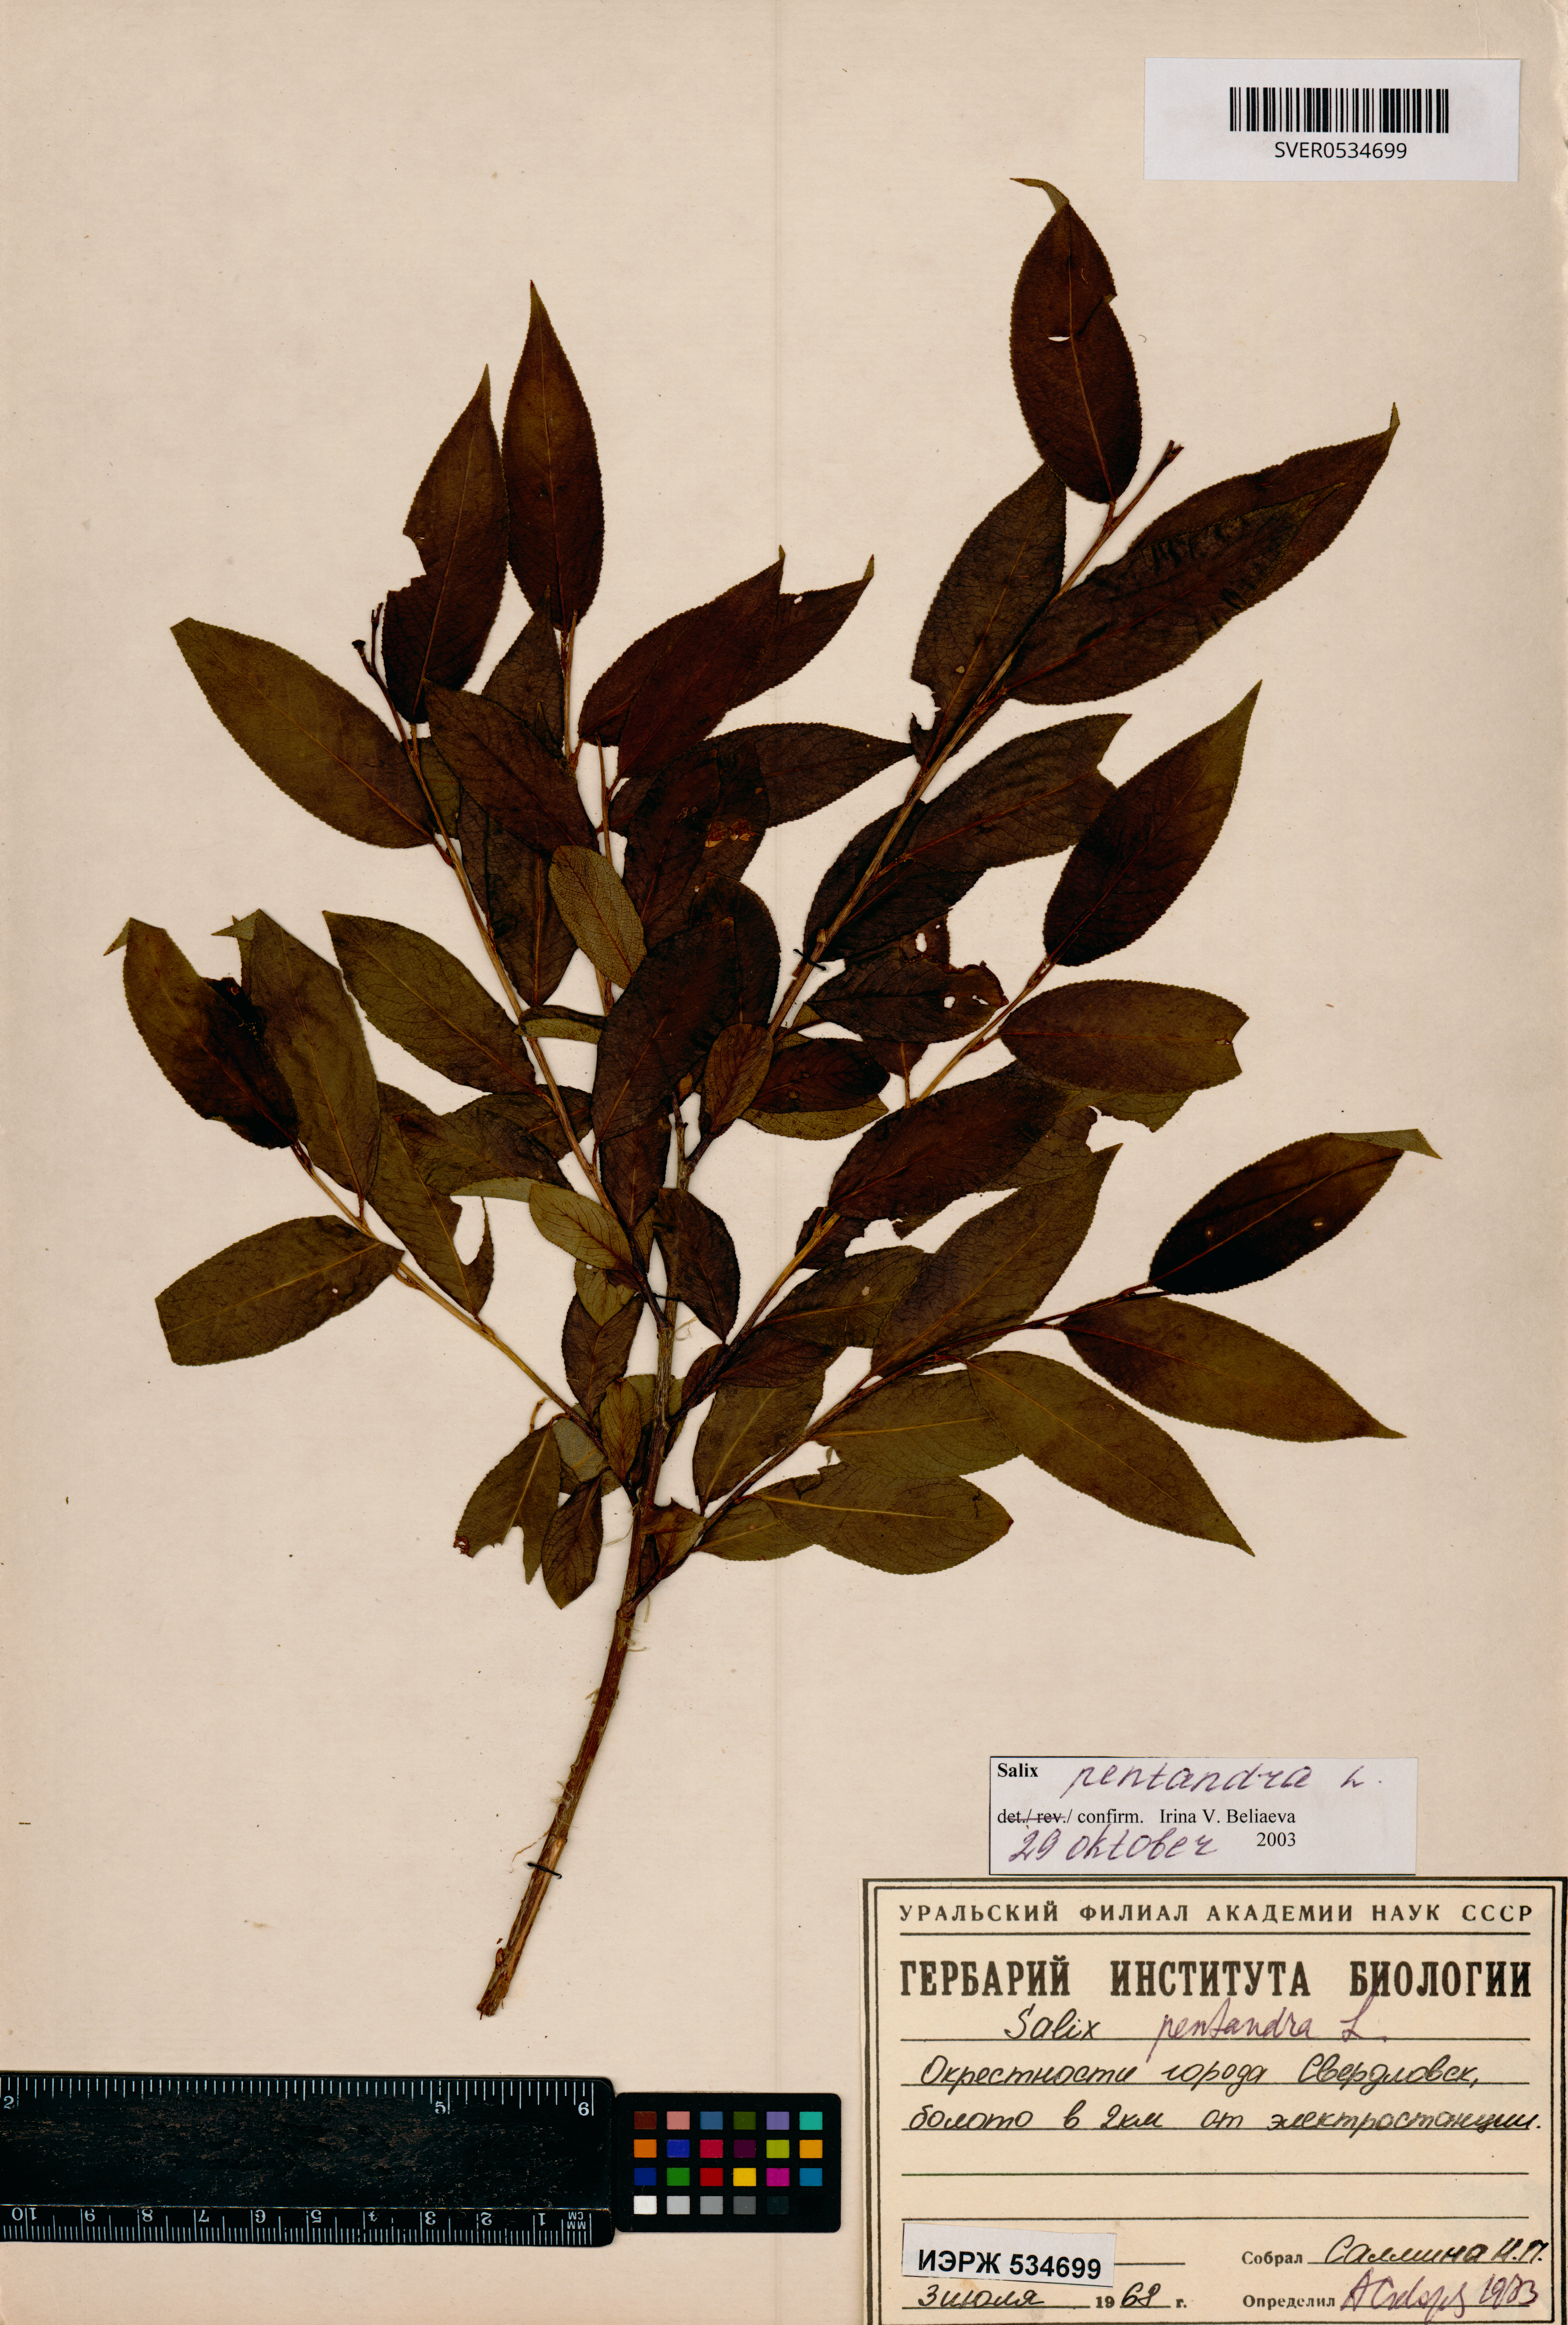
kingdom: Plantae
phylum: Tracheophyta
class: Magnoliopsida
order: Malpighiales
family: Salicaceae
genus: Salix
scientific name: Salix pentandra
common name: Bay willow
